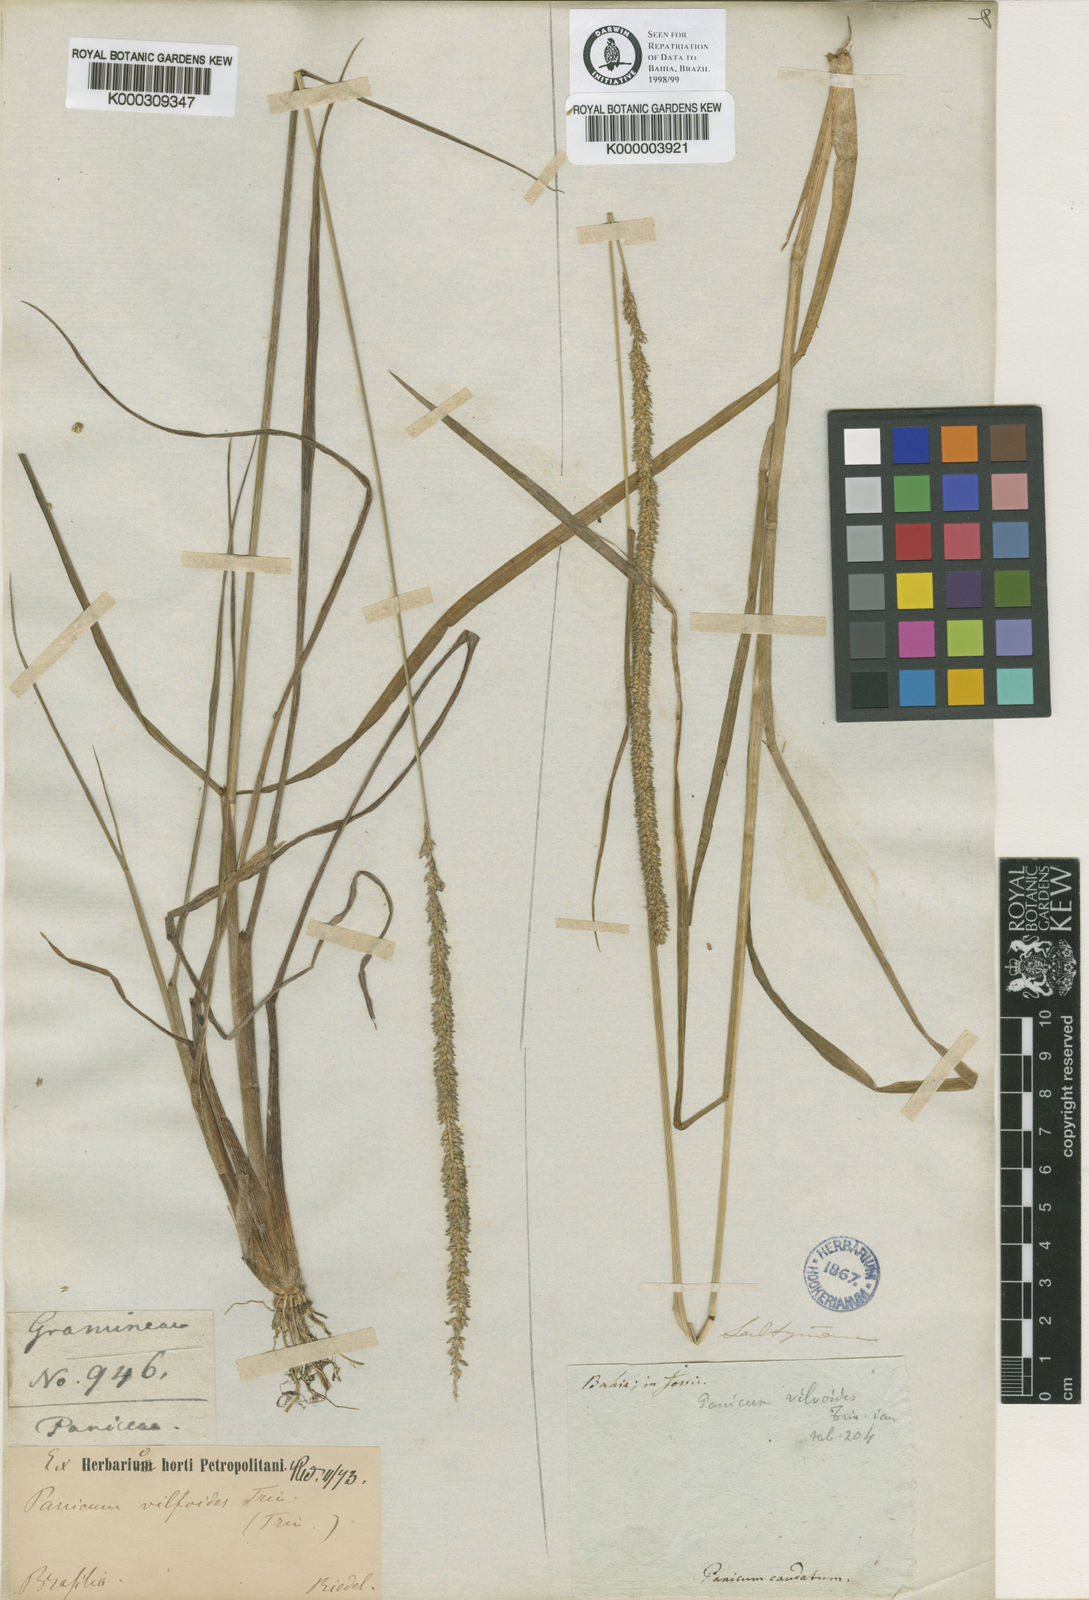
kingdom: Plantae
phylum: Tracheophyta
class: Liliopsida
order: Poales
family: Poaceae
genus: Sacciolepis
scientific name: Sacciolepis vilvoides
